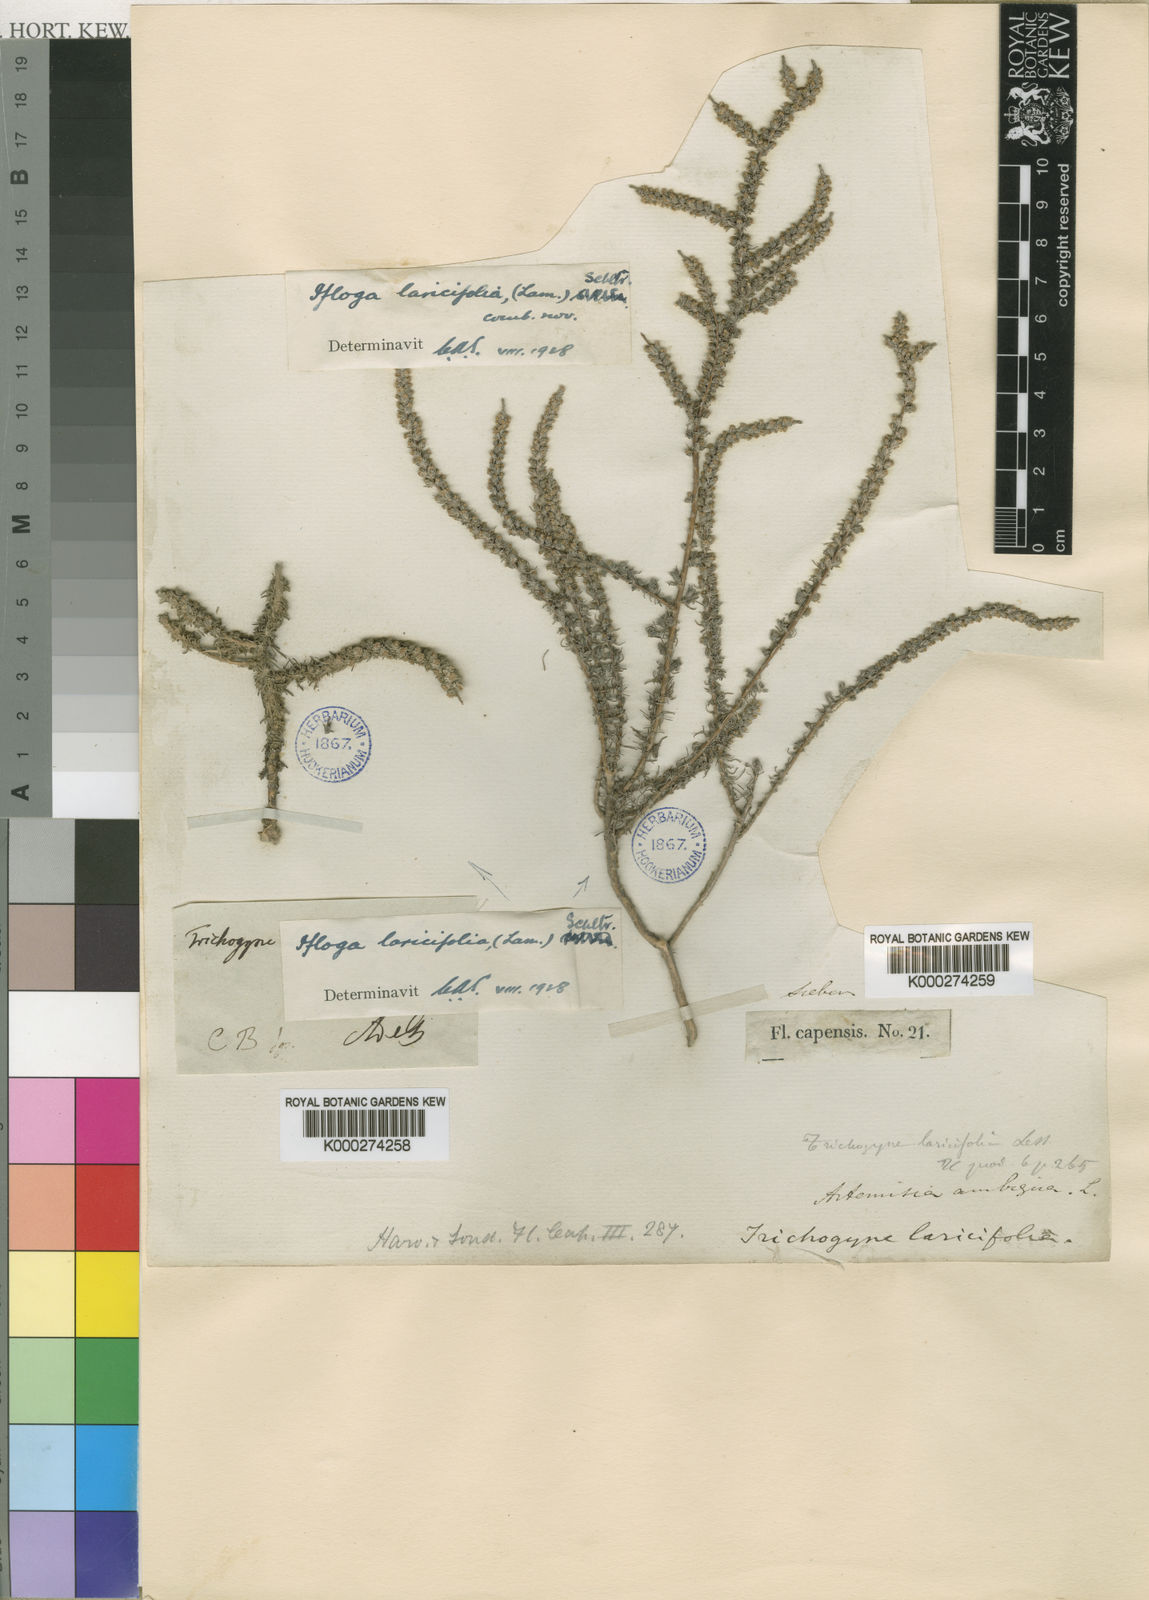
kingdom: Plantae
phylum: Tracheophyta
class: Magnoliopsida
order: Asterales
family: Asteraceae
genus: Ifloga
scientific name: Ifloga
